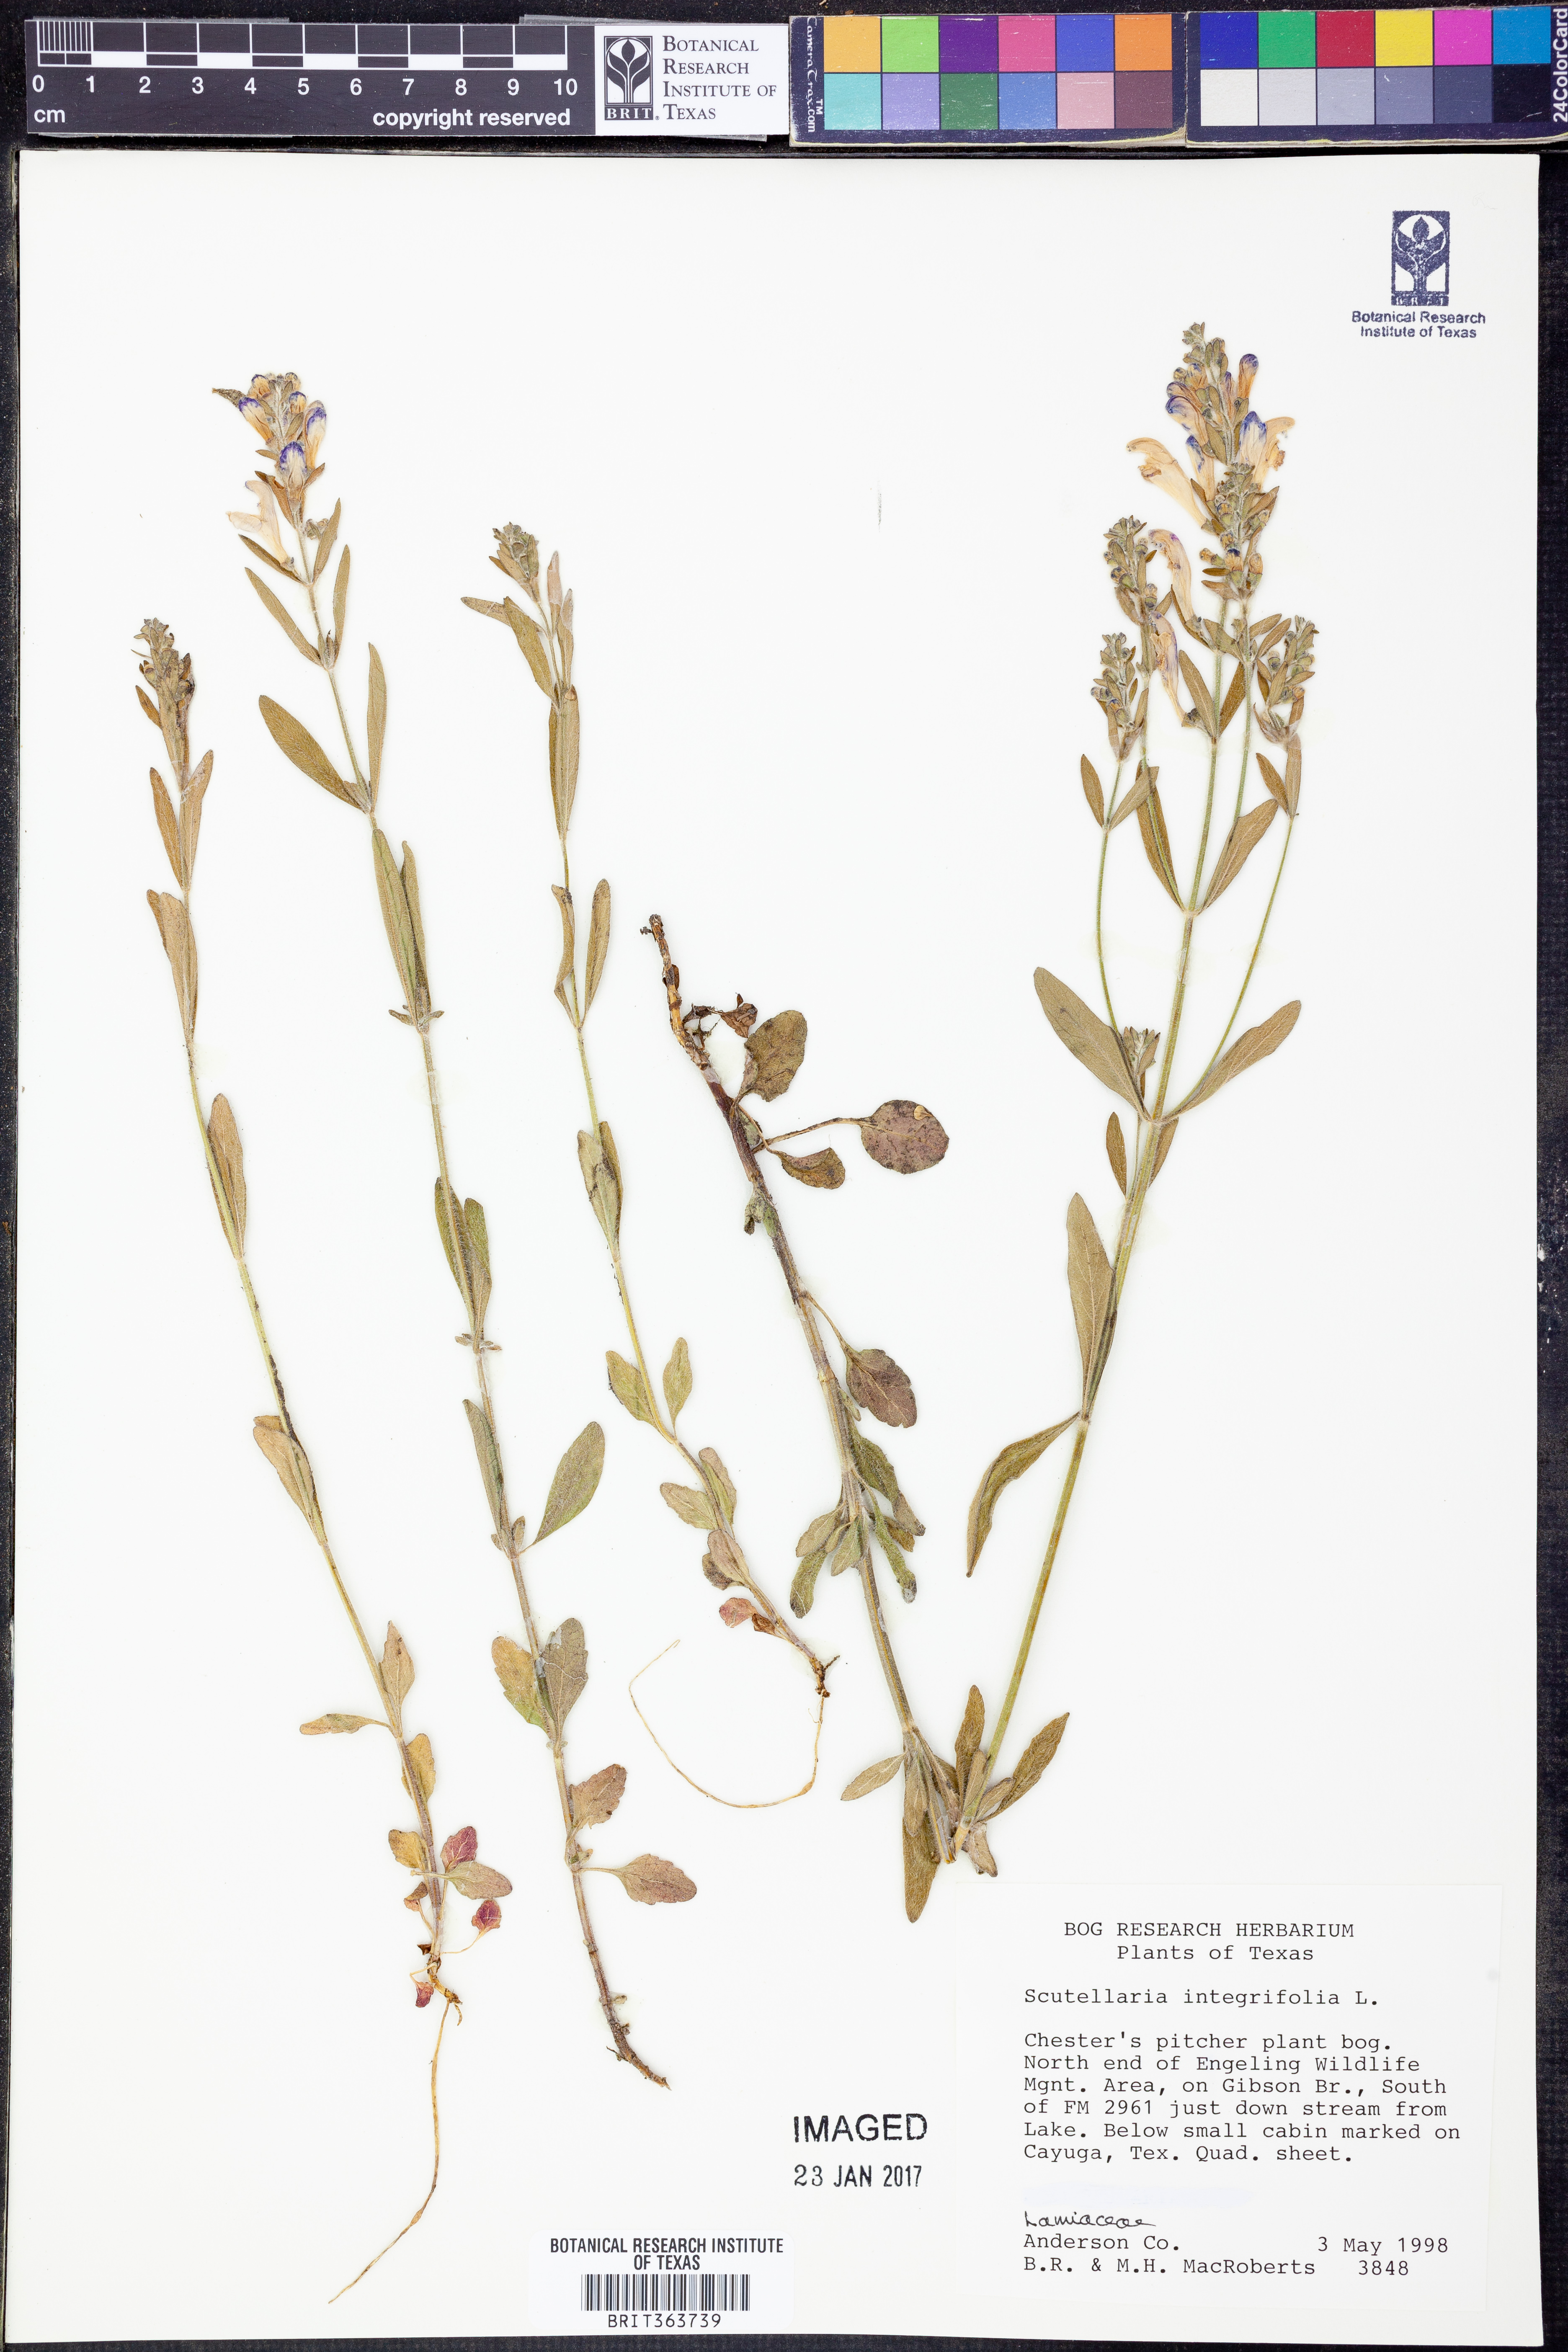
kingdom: Plantae
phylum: Tracheophyta
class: Magnoliopsida
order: Lamiales
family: Lamiaceae
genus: Scutellaria
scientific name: Scutellaria integrifolia
